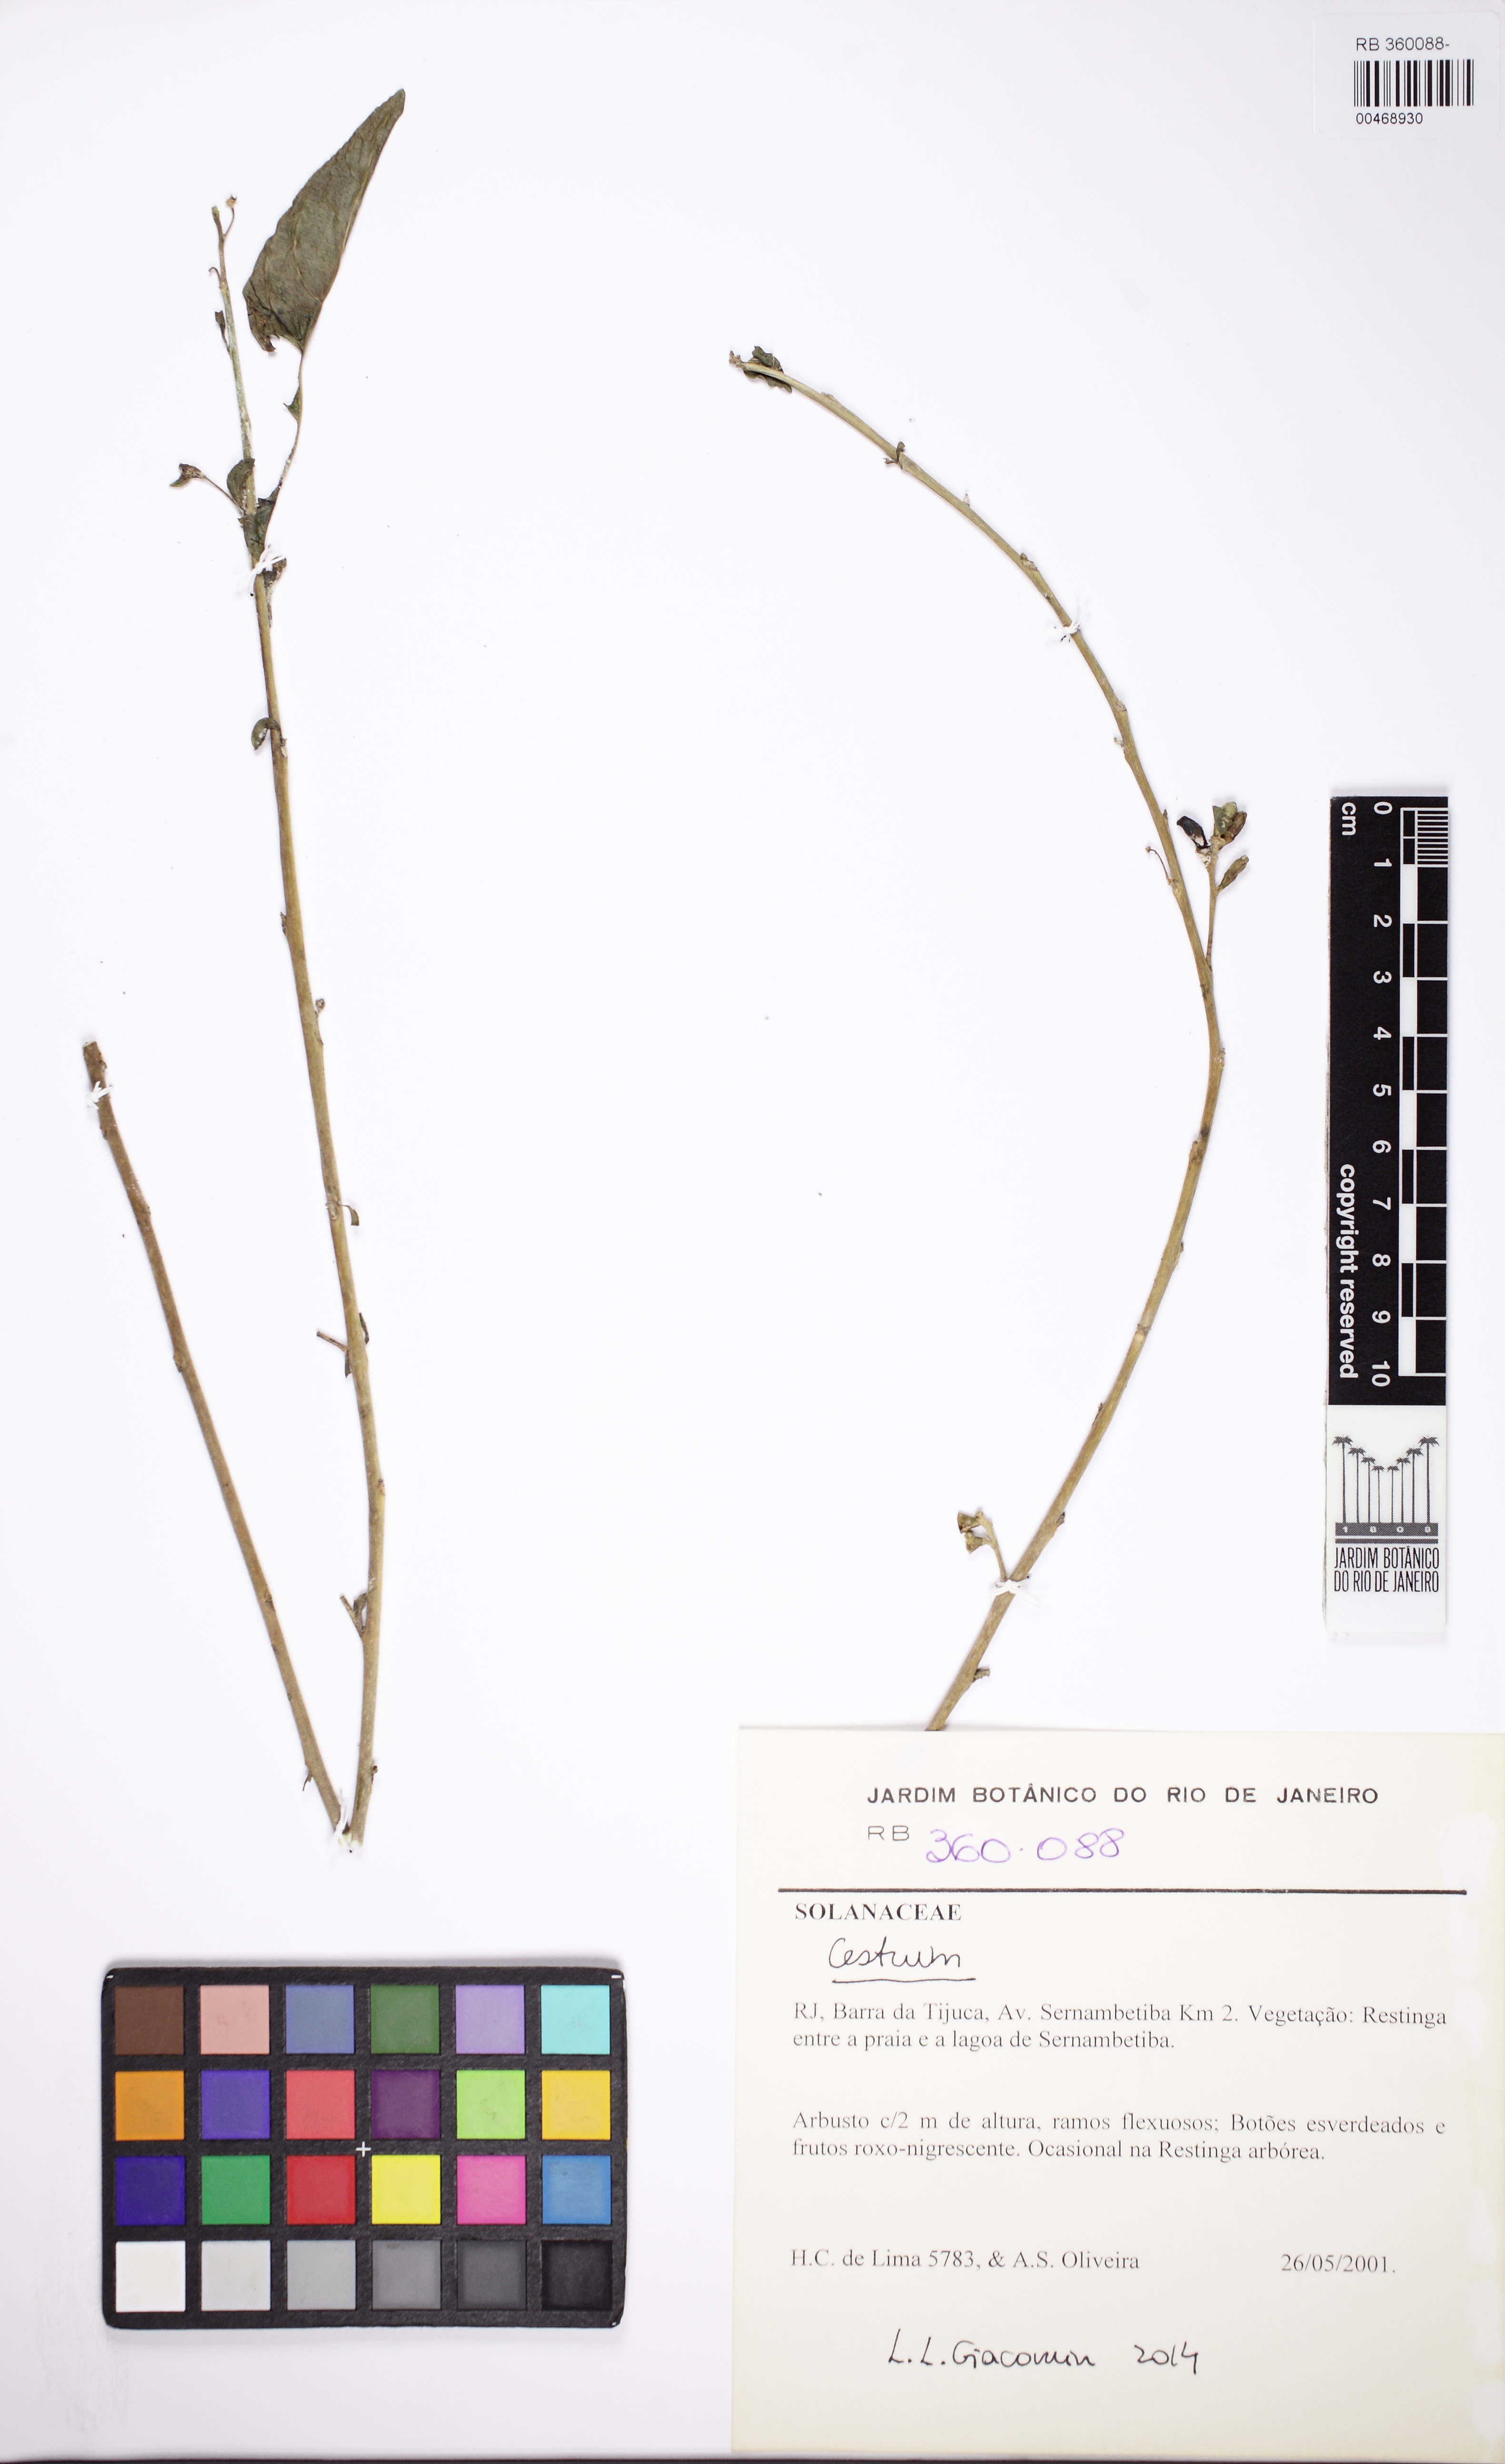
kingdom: Plantae
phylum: Tracheophyta
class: Magnoliopsida
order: Solanales
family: Solanaceae
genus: Cestrum
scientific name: Cestrum
